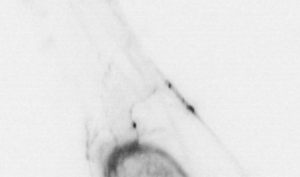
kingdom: Animalia
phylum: Chaetognatha
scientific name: Chaetognatha
